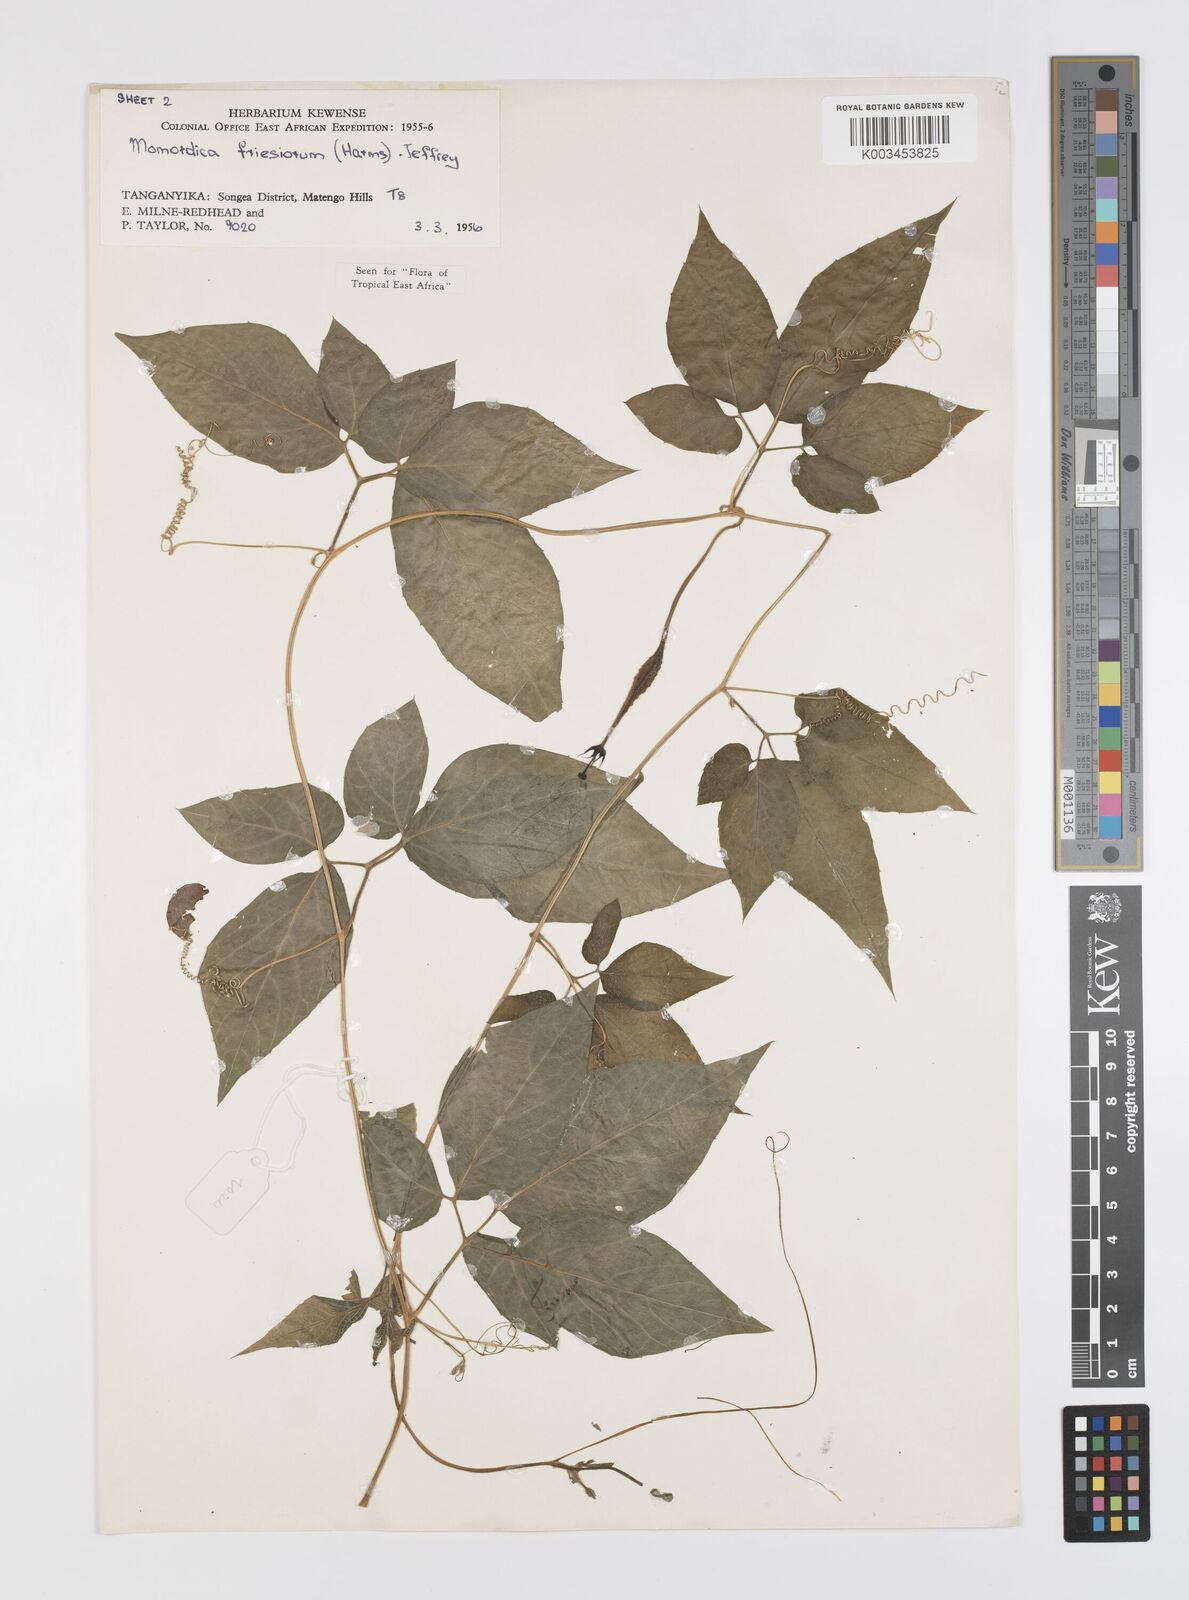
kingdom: Plantae
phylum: Tracheophyta
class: Magnoliopsida
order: Cucurbitales
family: Cucurbitaceae
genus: Momordica
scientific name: Momordica friesiorum
